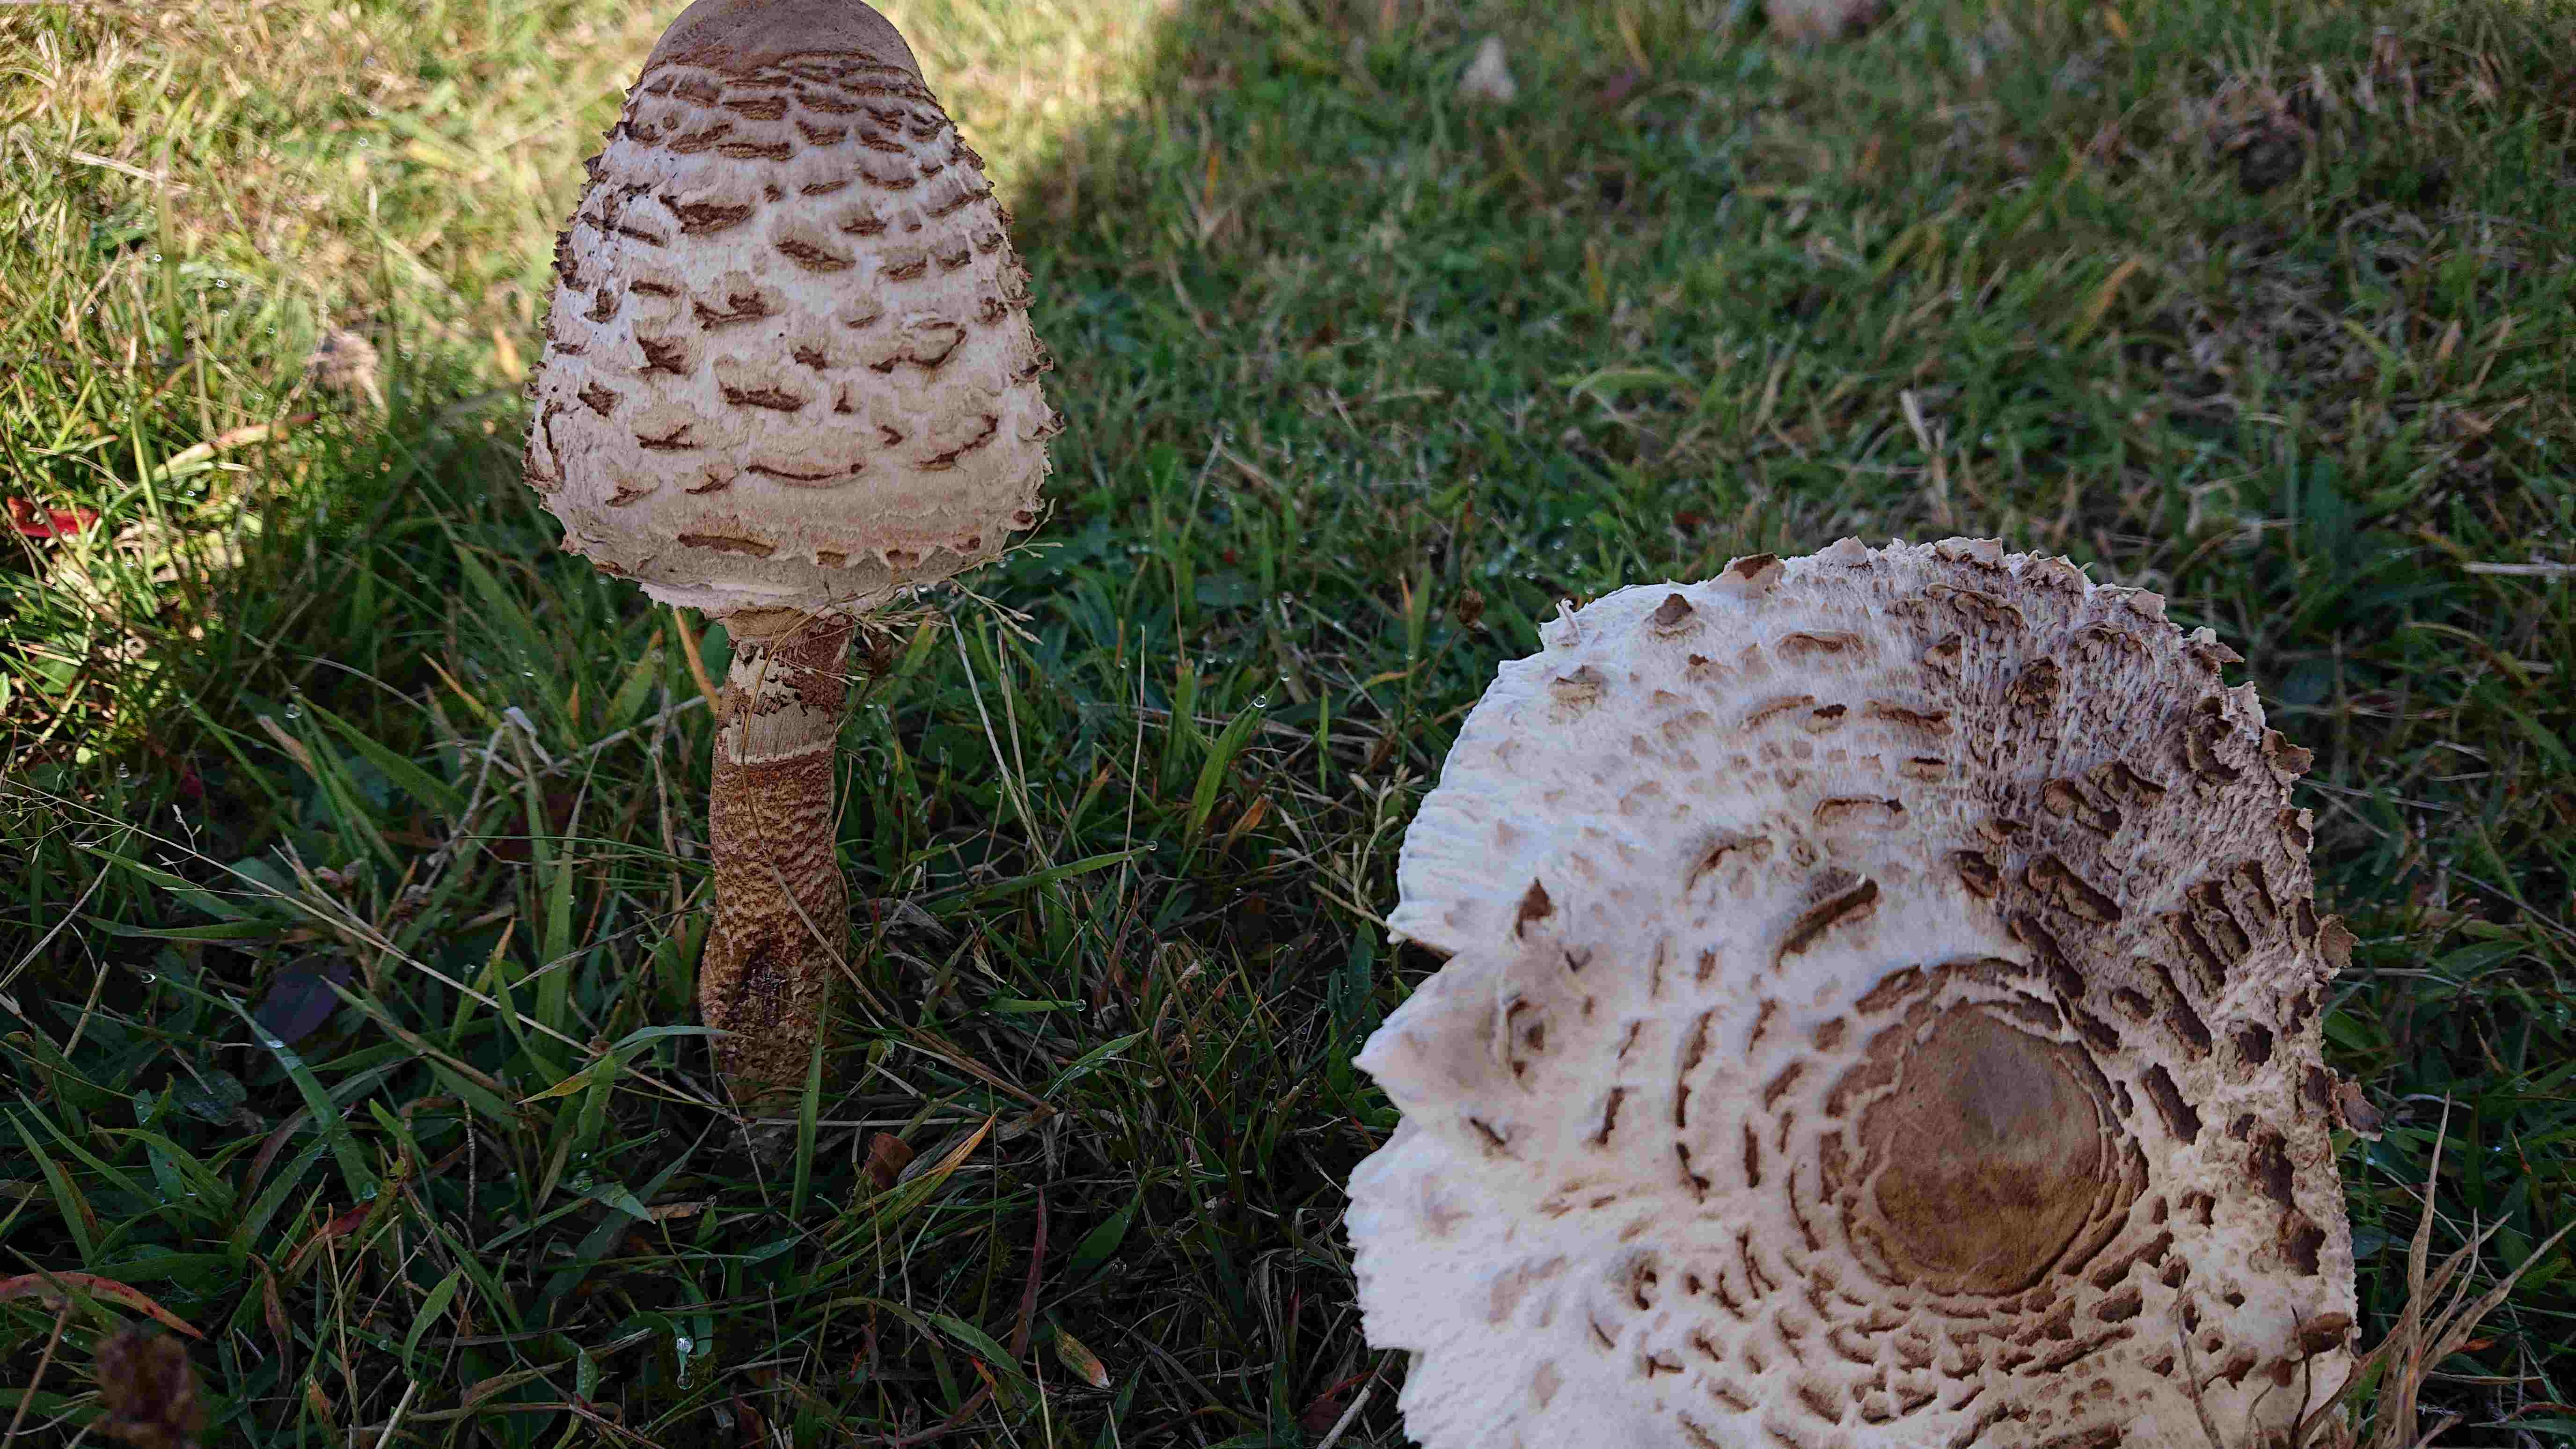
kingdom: Fungi
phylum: Basidiomycota
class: Agaricomycetes
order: Agaricales
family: Agaricaceae
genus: Macrolepiota
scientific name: Macrolepiota procera
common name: stor kæmpeparasolhat
